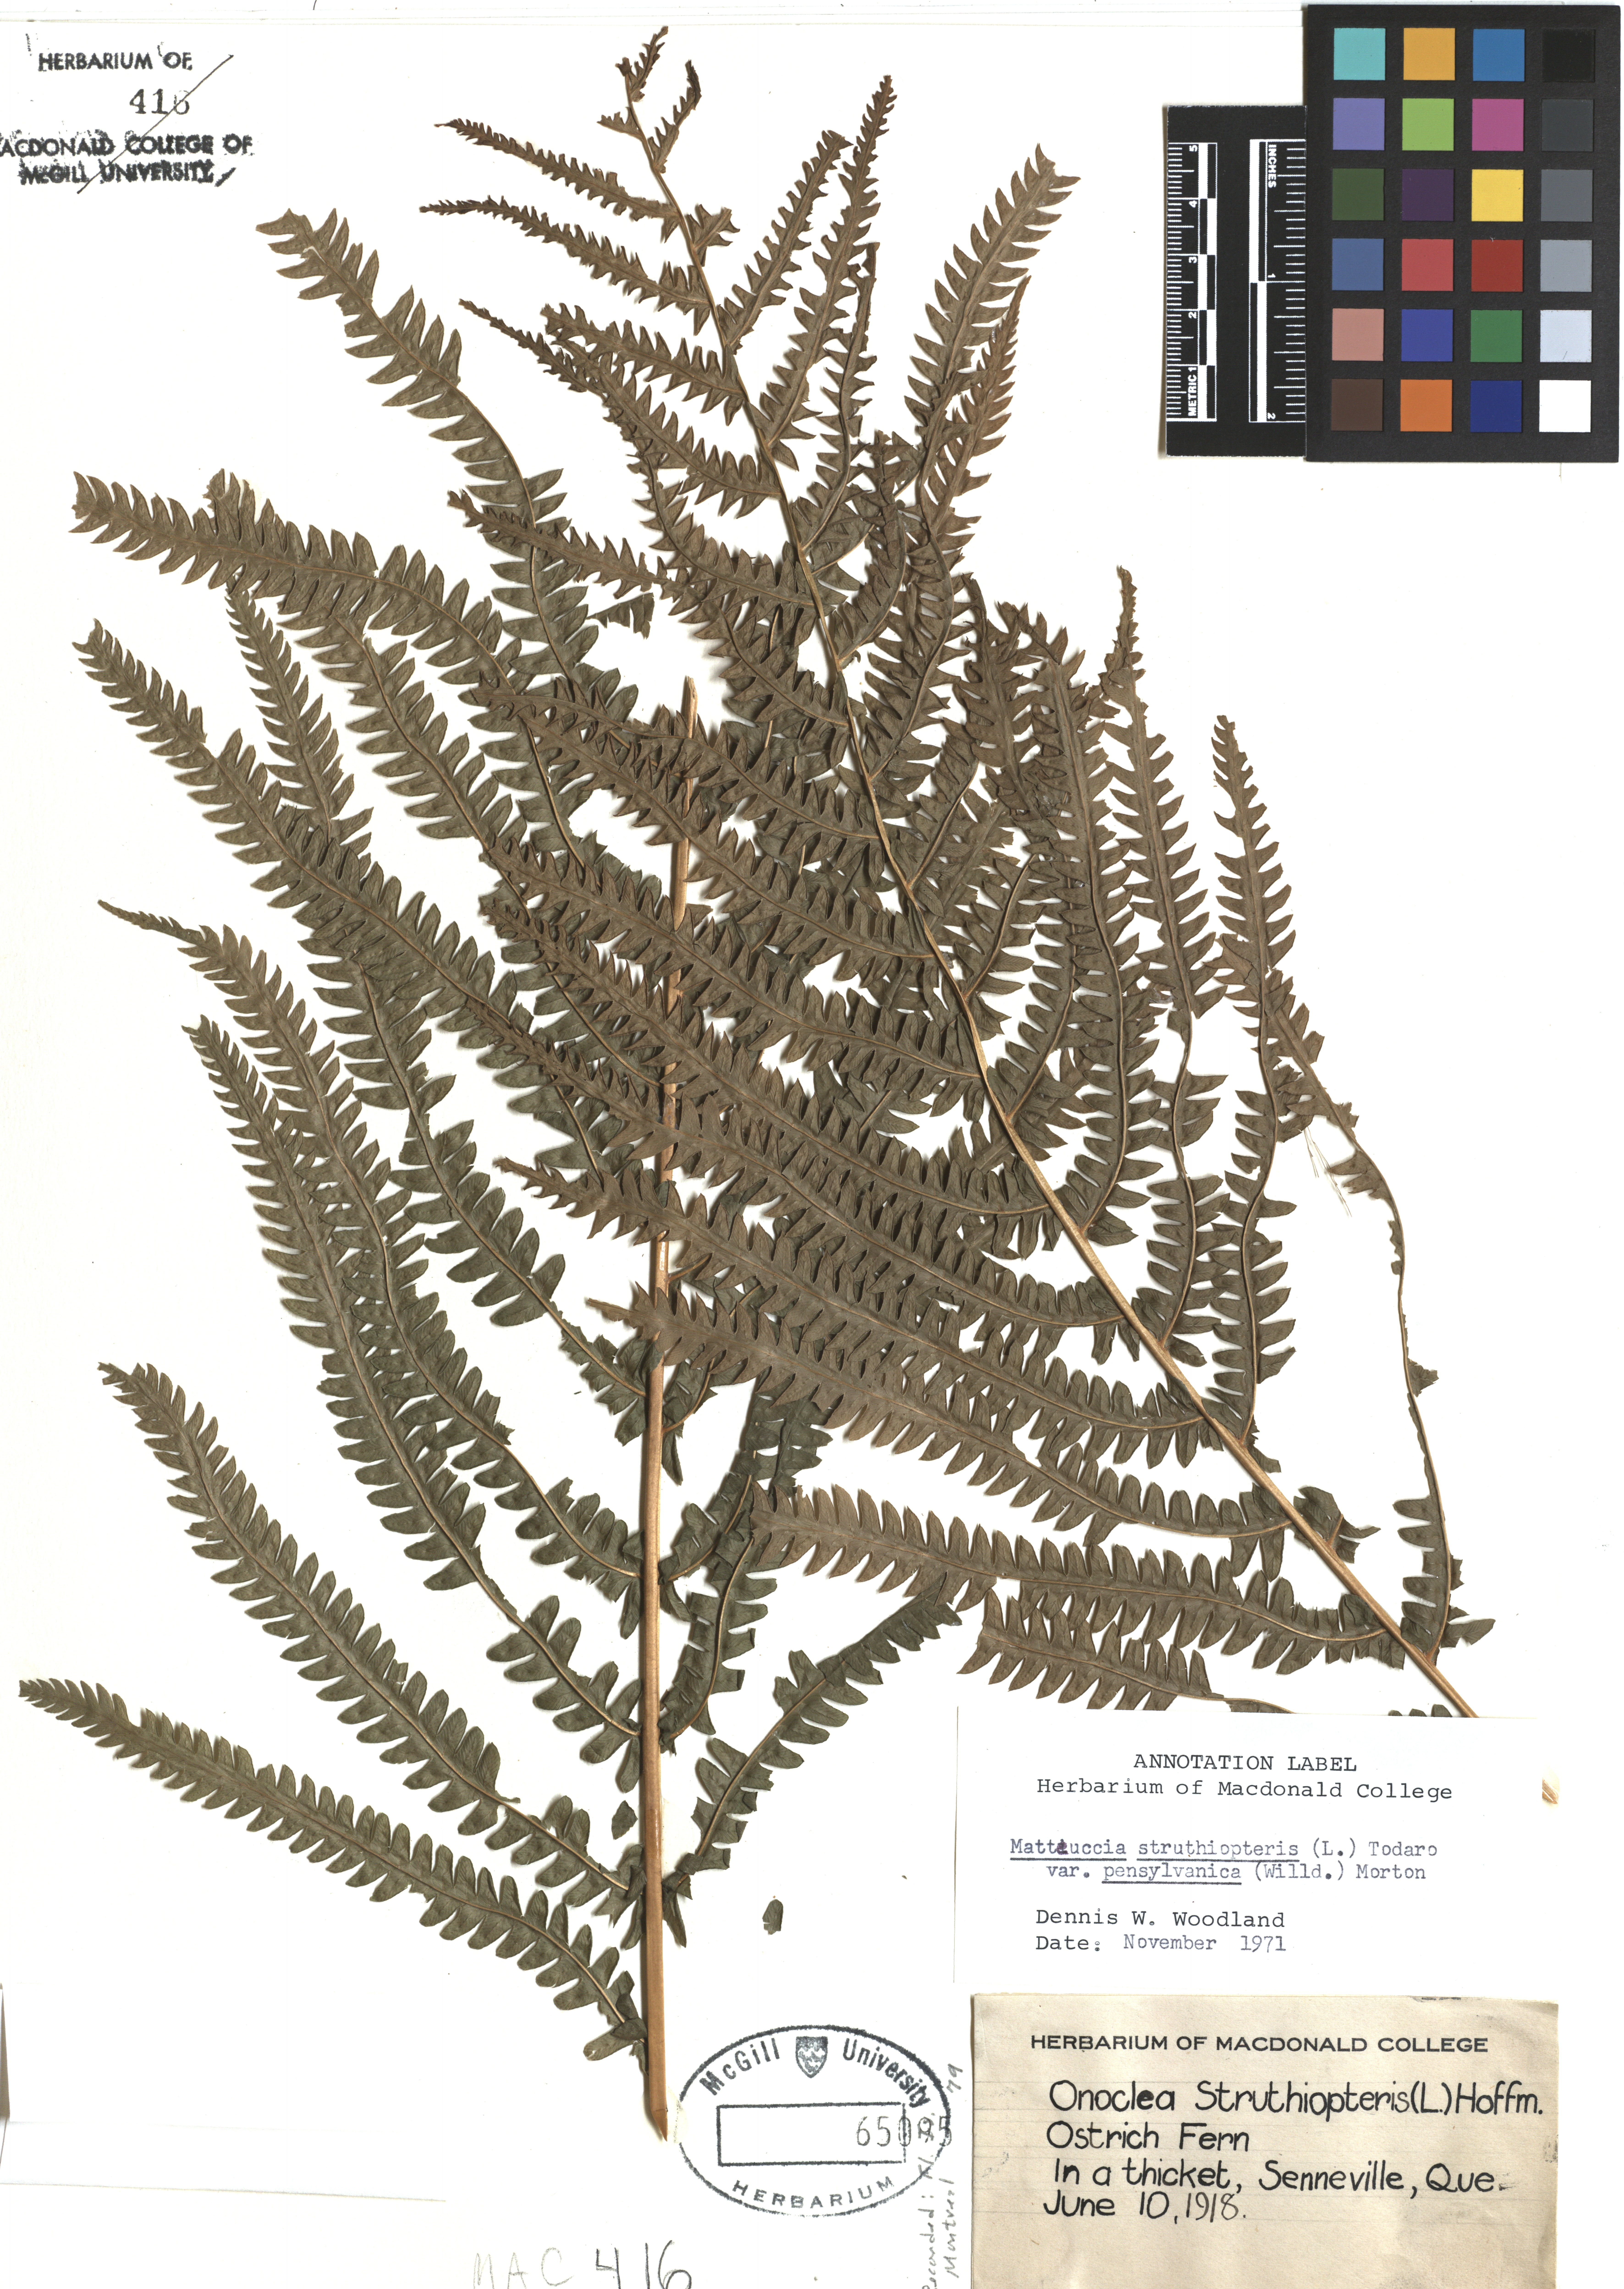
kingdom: Plantae
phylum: Tracheophyta
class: Polypodiopsida
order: Polypodiales
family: Onocleaceae
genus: Matteuccia
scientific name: Matteuccia struthiopteris
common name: Ostrich fern
